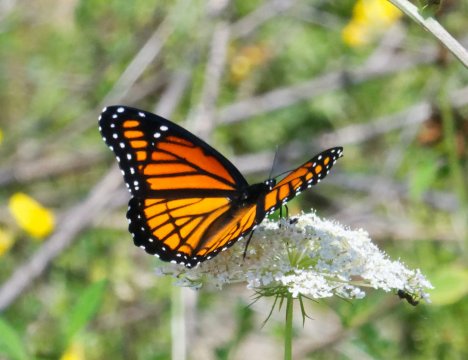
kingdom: Animalia
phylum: Arthropoda
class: Insecta
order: Lepidoptera
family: Nymphalidae
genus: Limenitis
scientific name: Limenitis archippus
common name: Viceroy
